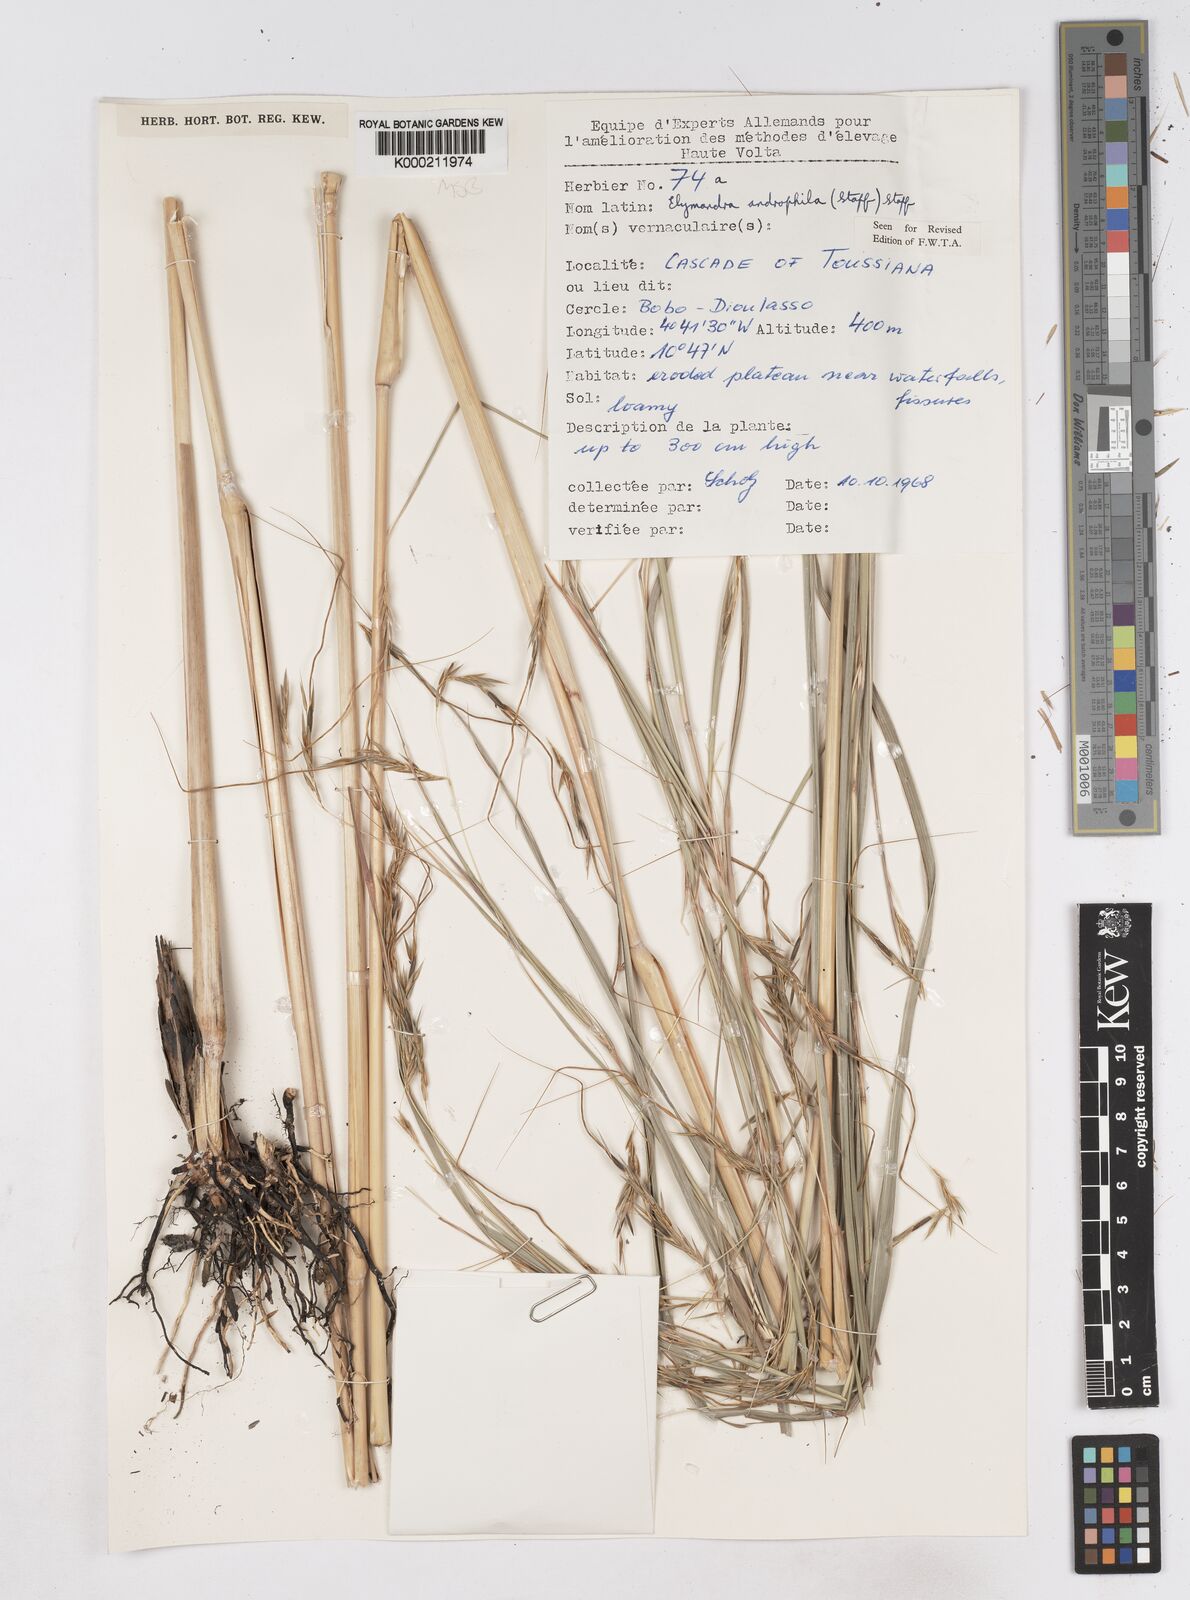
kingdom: Plantae
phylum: Tracheophyta
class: Liliopsida
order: Poales
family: Poaceae
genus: Elymandra
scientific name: Elymandra androphila
